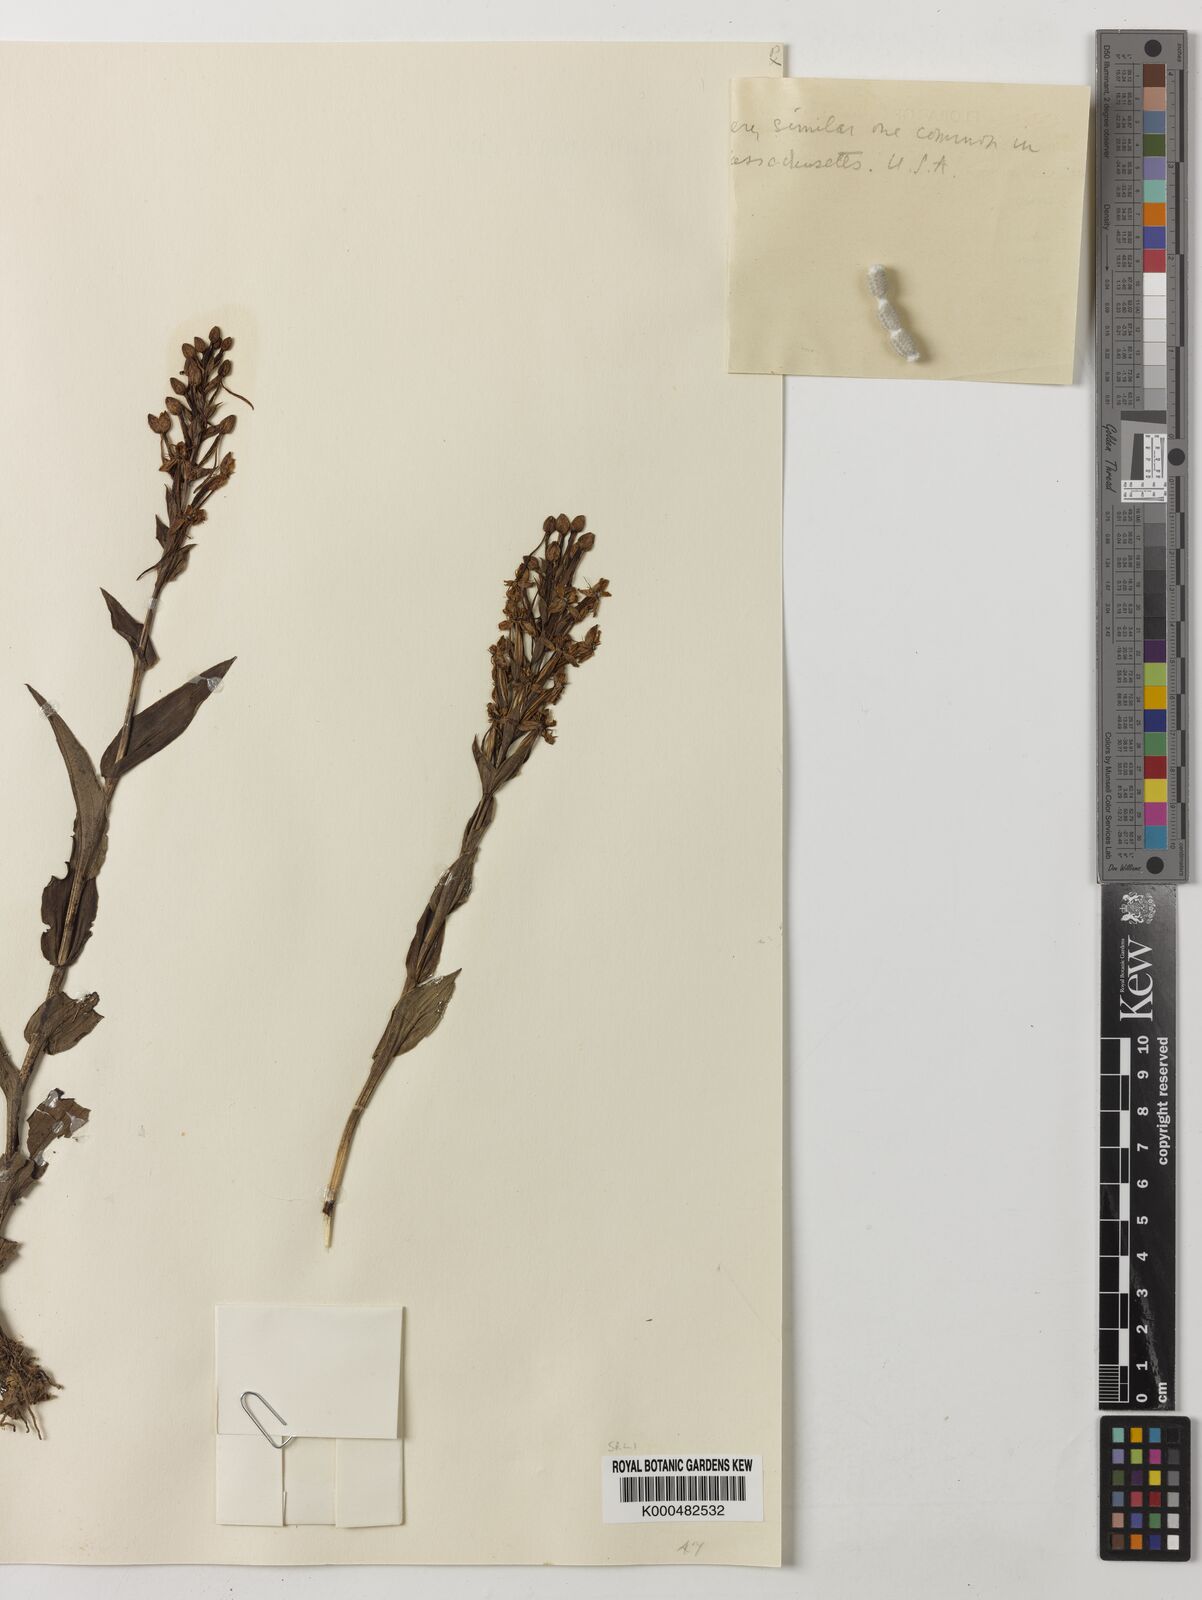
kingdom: Plantae
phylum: Tracheophyta
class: Liliopsida
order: Asparagales
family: Orchidaceae
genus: Habenaria
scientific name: Habenaria monorrhiza
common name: Tropical bog orchid
